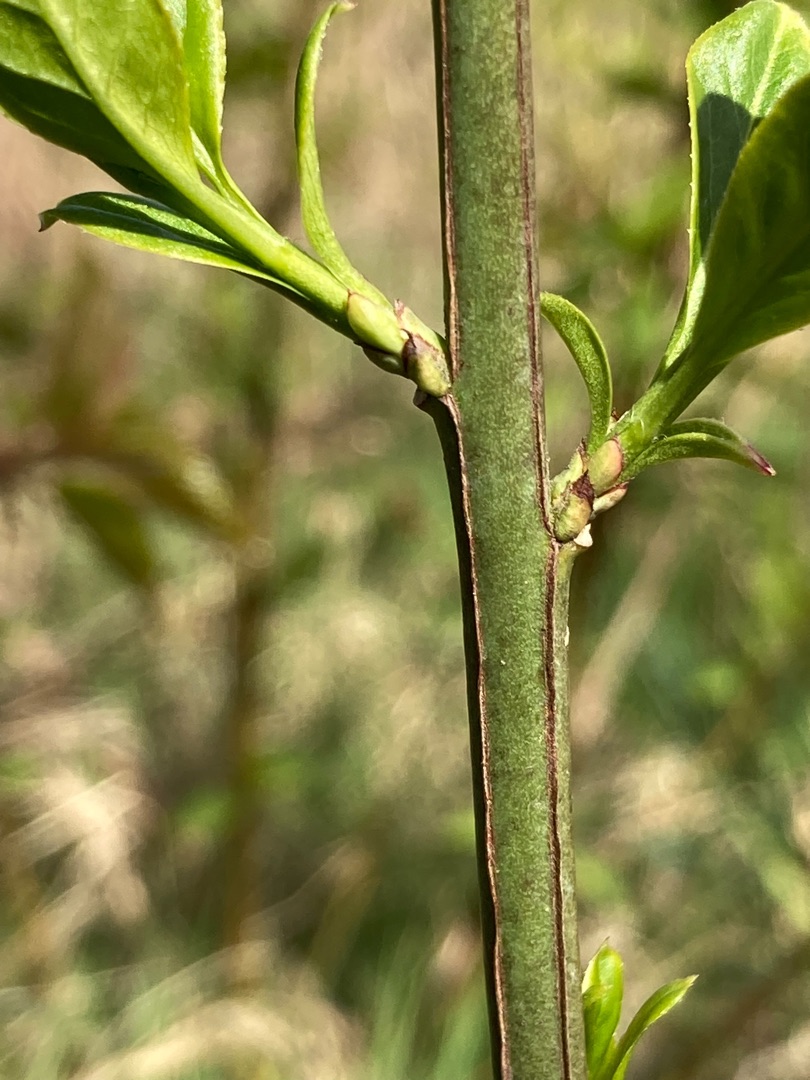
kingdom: Plantae
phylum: Tracheophyta
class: Magnoliopsida
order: Celastrales
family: Celastraceae
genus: Euonymus
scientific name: Euonymus europaeus
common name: Benved
